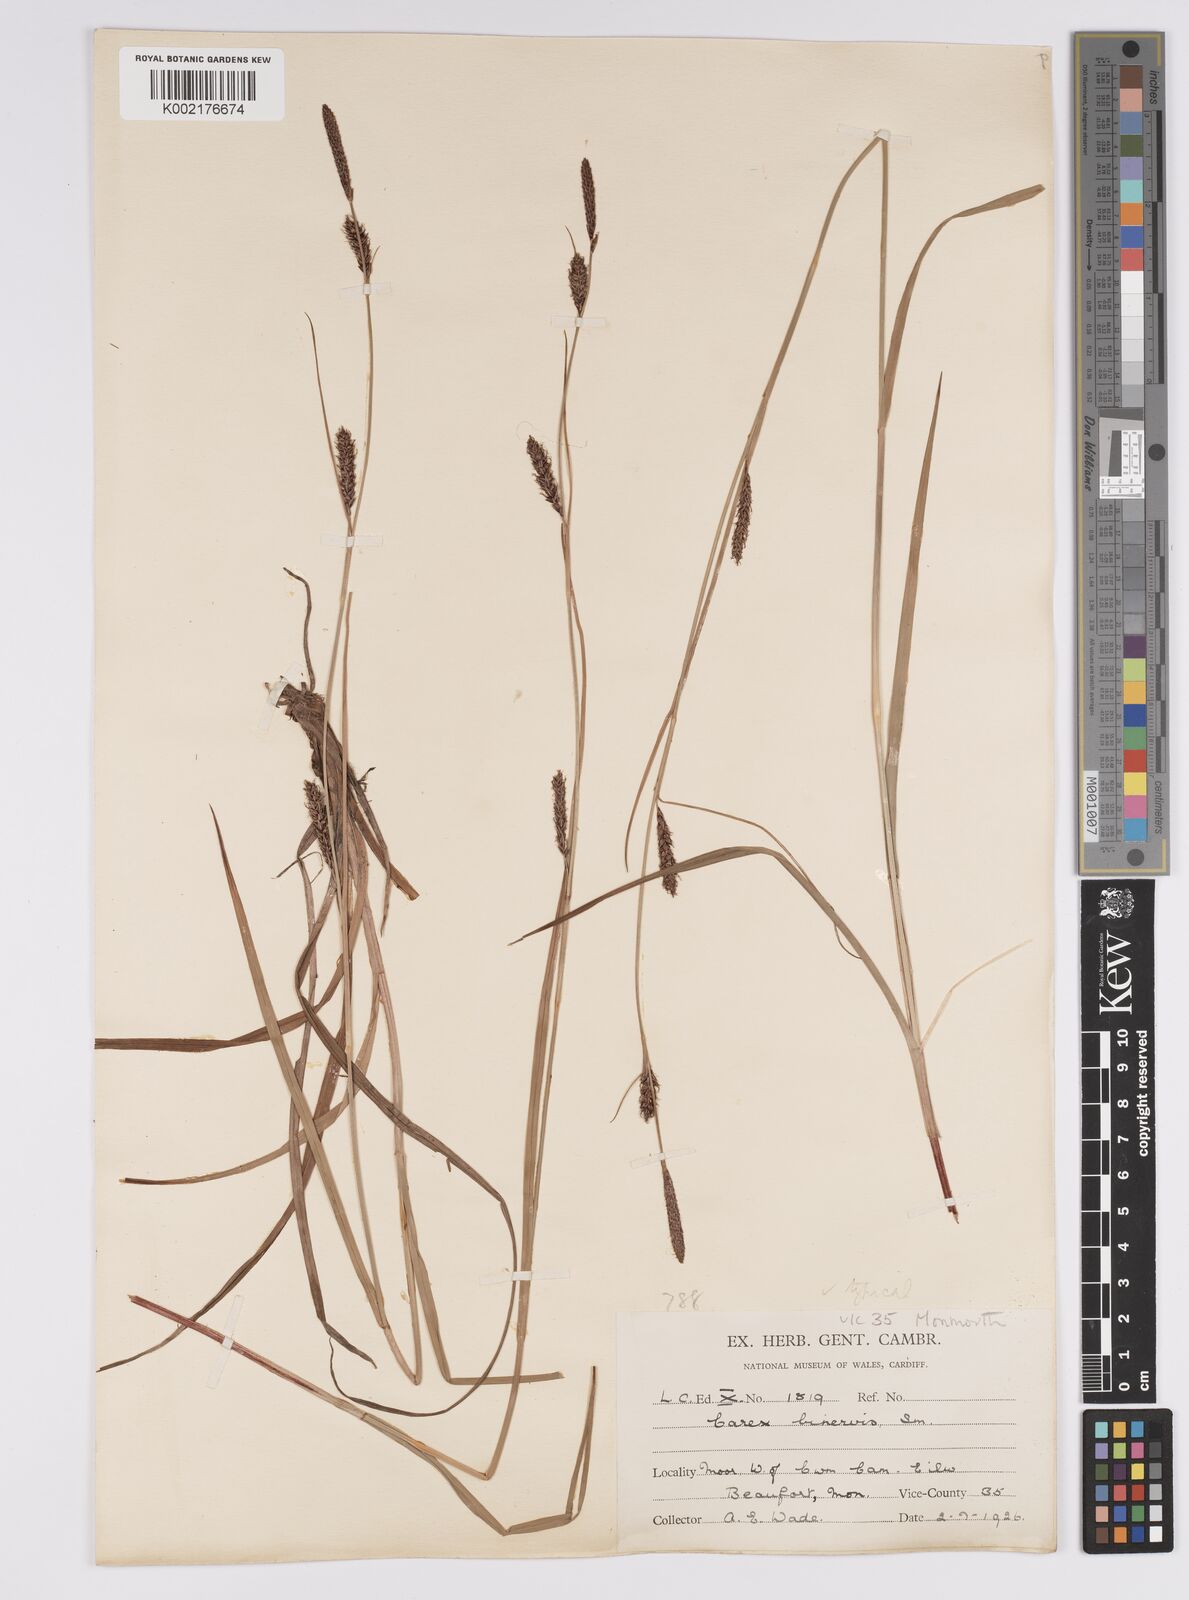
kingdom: Plantae
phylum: Tracheophyta
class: Liliopsida
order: Poales
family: Cyperaceae
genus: Carex
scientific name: Carex binervis
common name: Green-ribbed sedge
